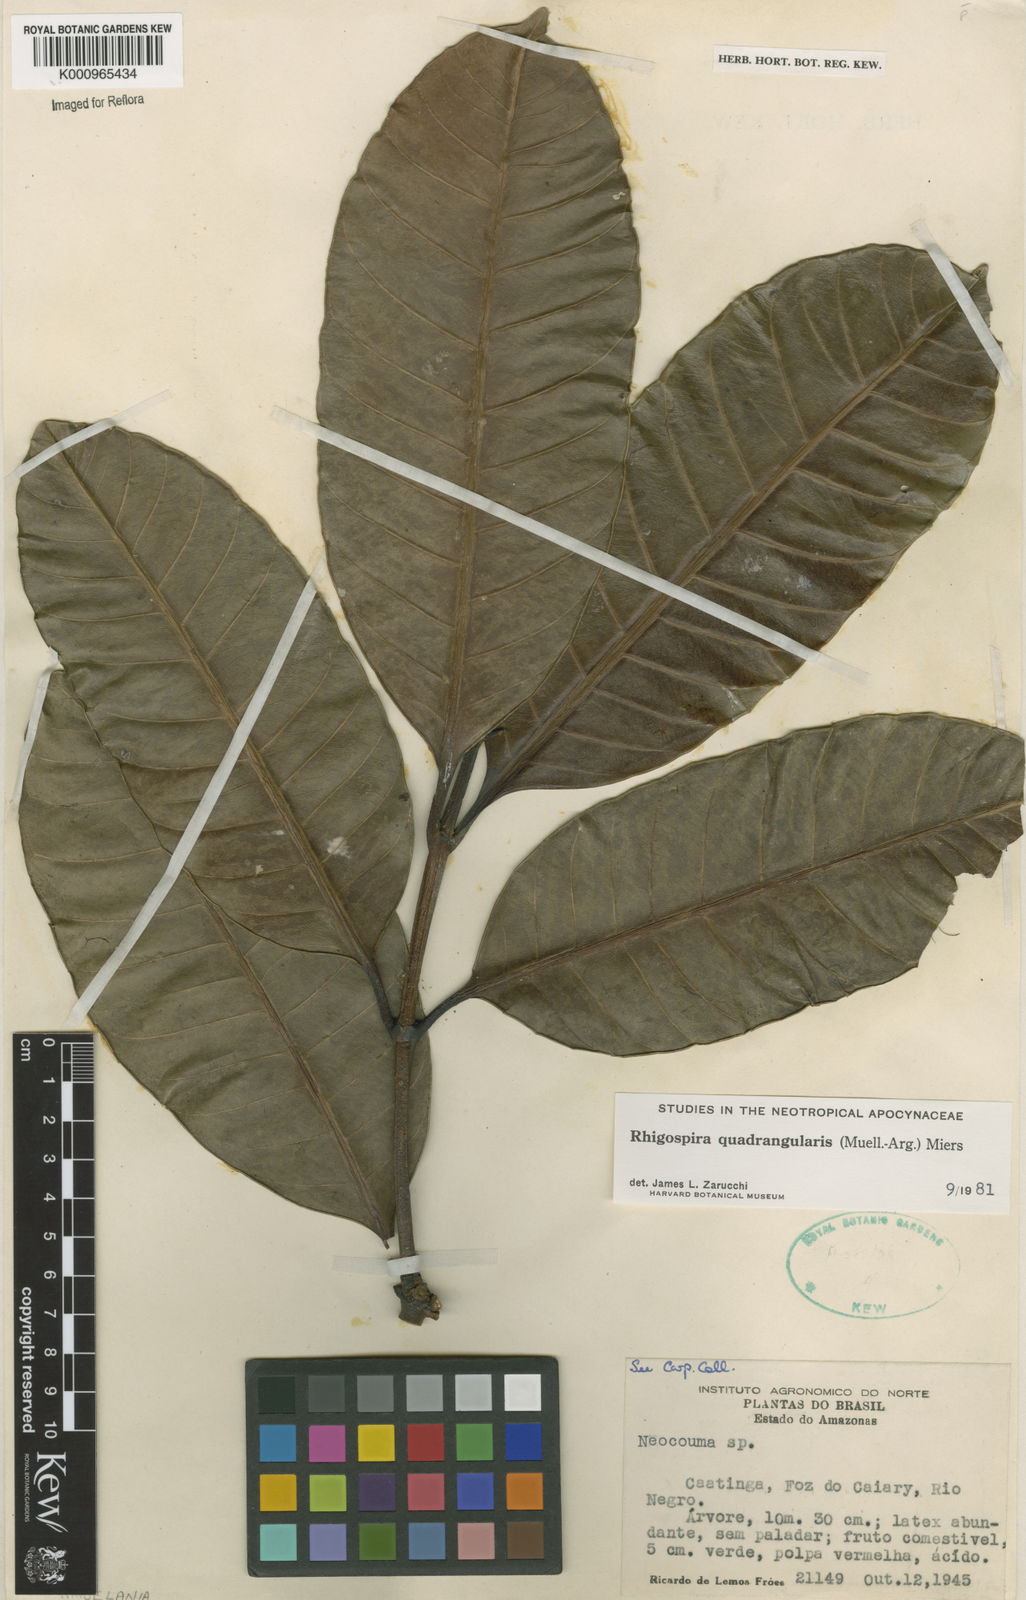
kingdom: Plantae
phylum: Tracheophyta
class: Magnoliopsida
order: Gentianales
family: Apocynaceae
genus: Rhigospira
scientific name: Rhigospira quadrangularis
